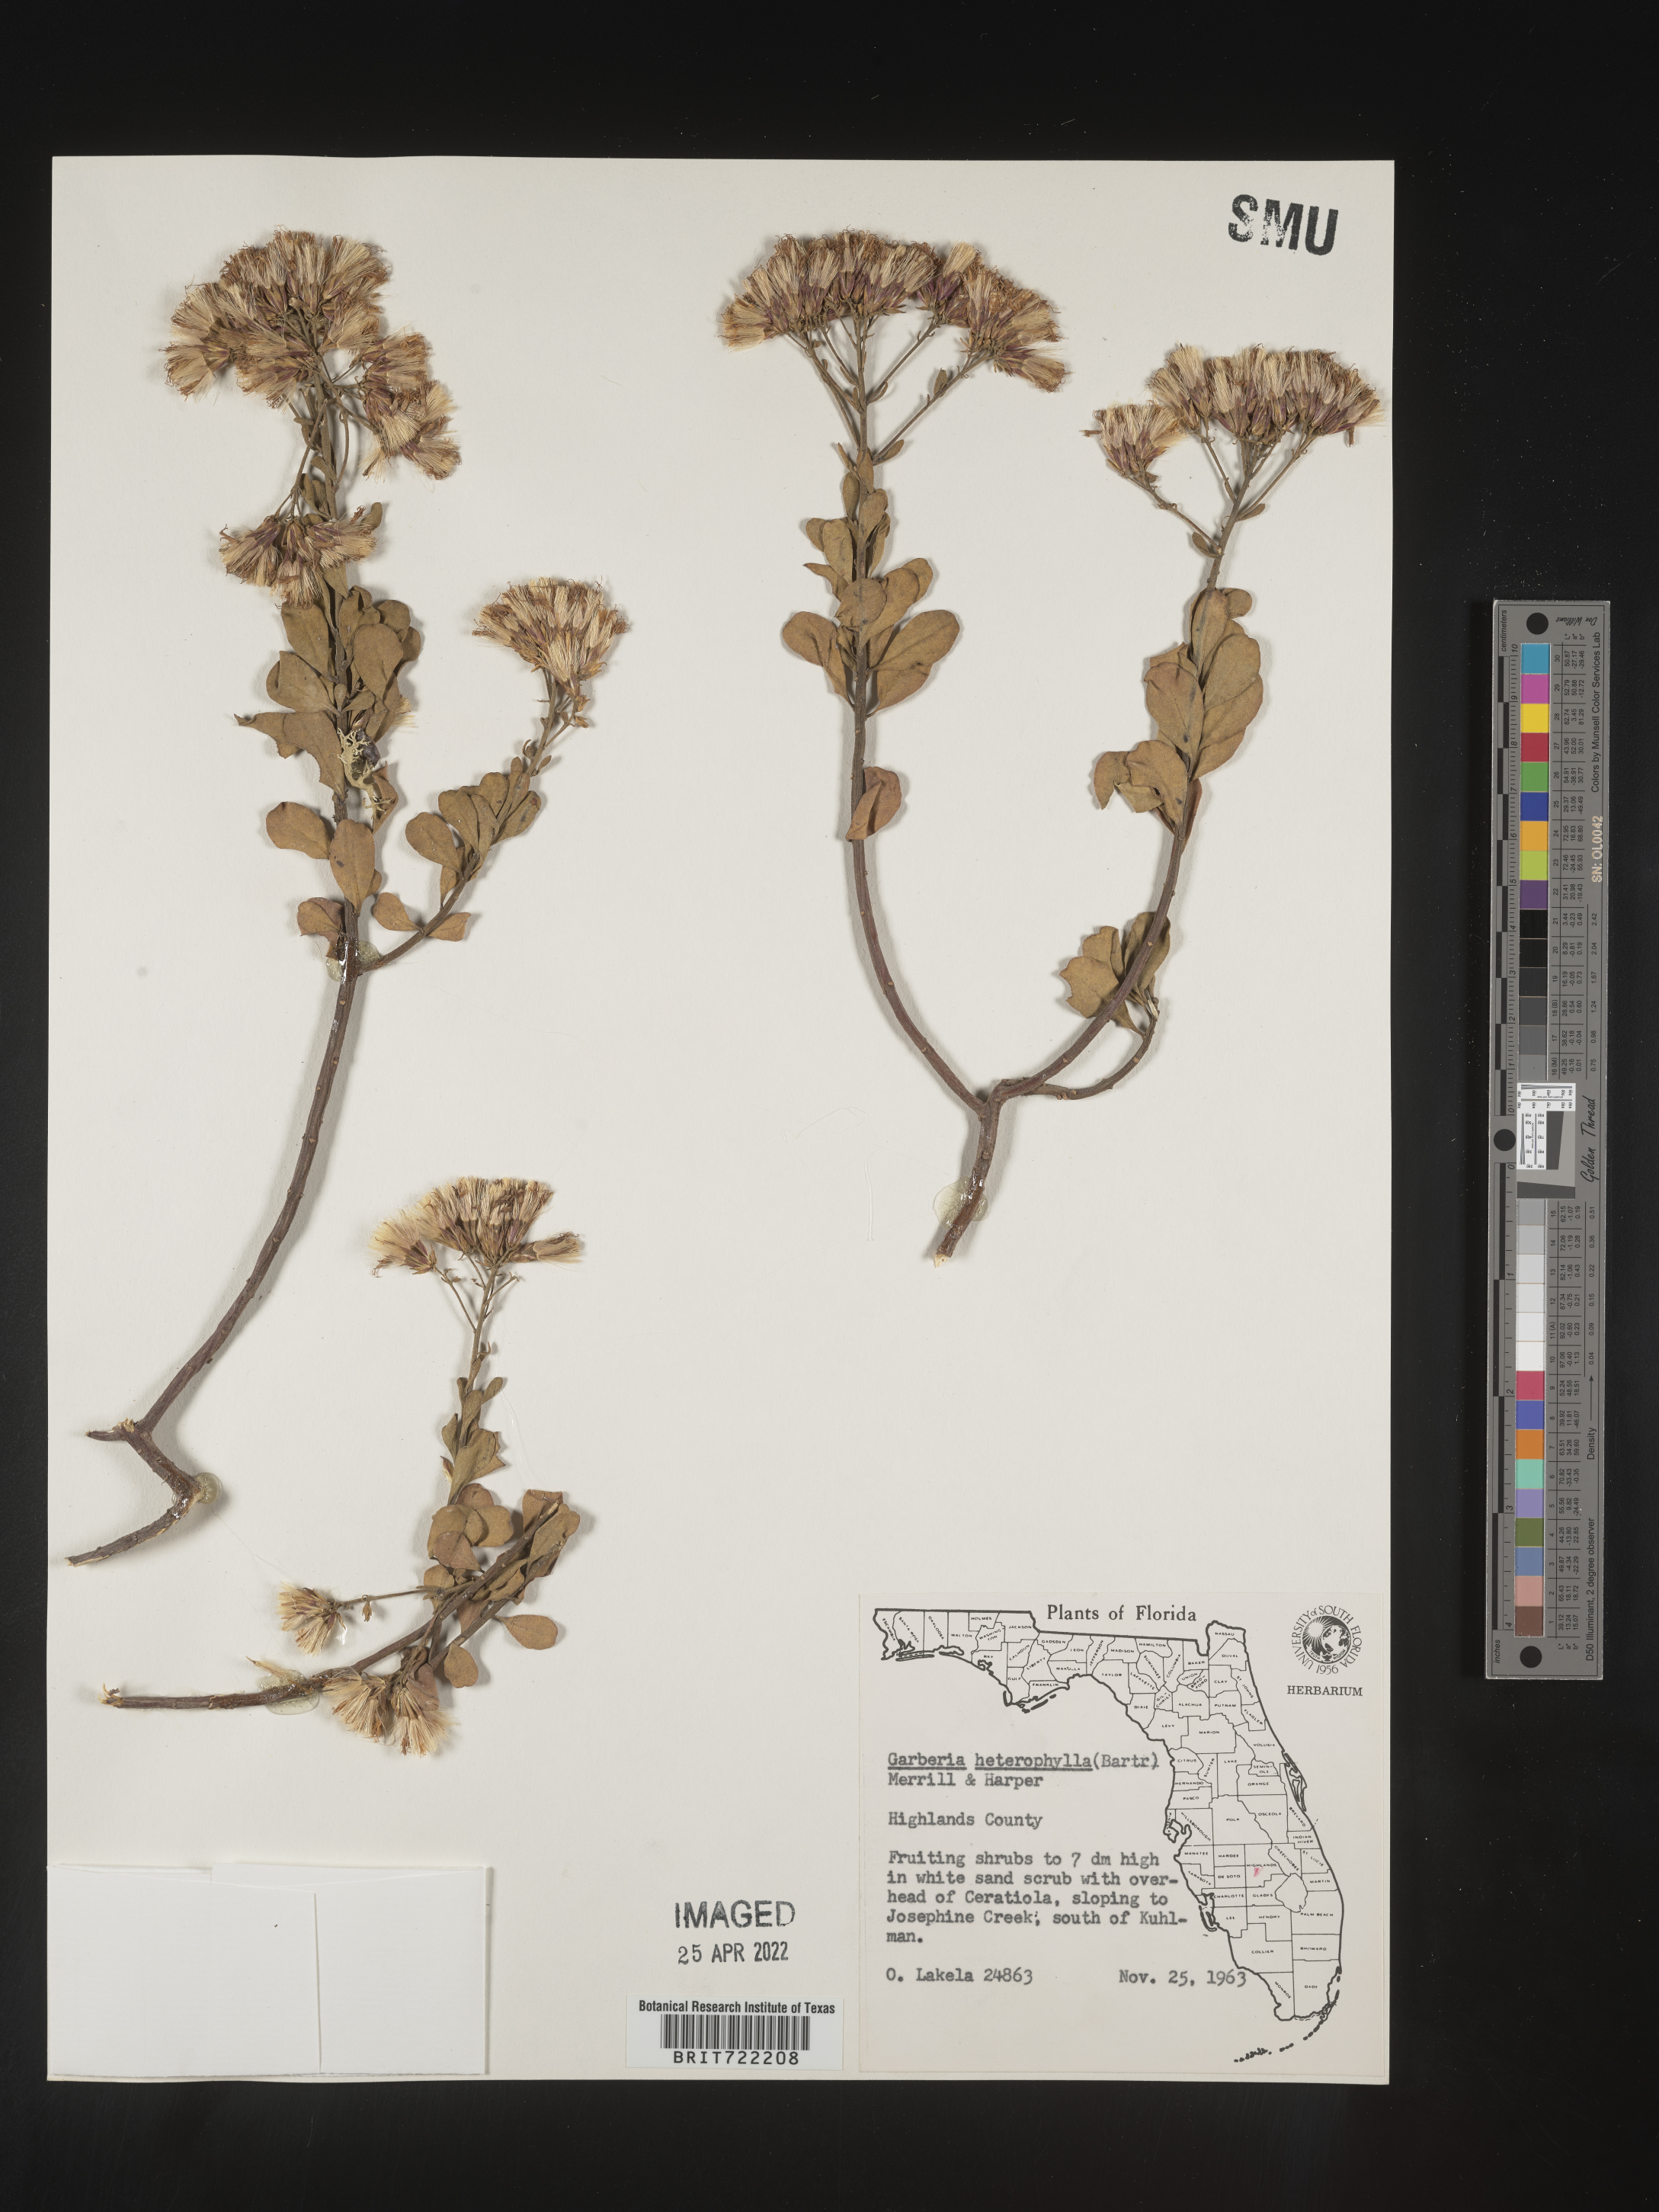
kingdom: Plantae
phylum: Tracheophyta
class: Magnoliopsida
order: Asterales
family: Asteraceae
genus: Garberia
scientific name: Garberia
